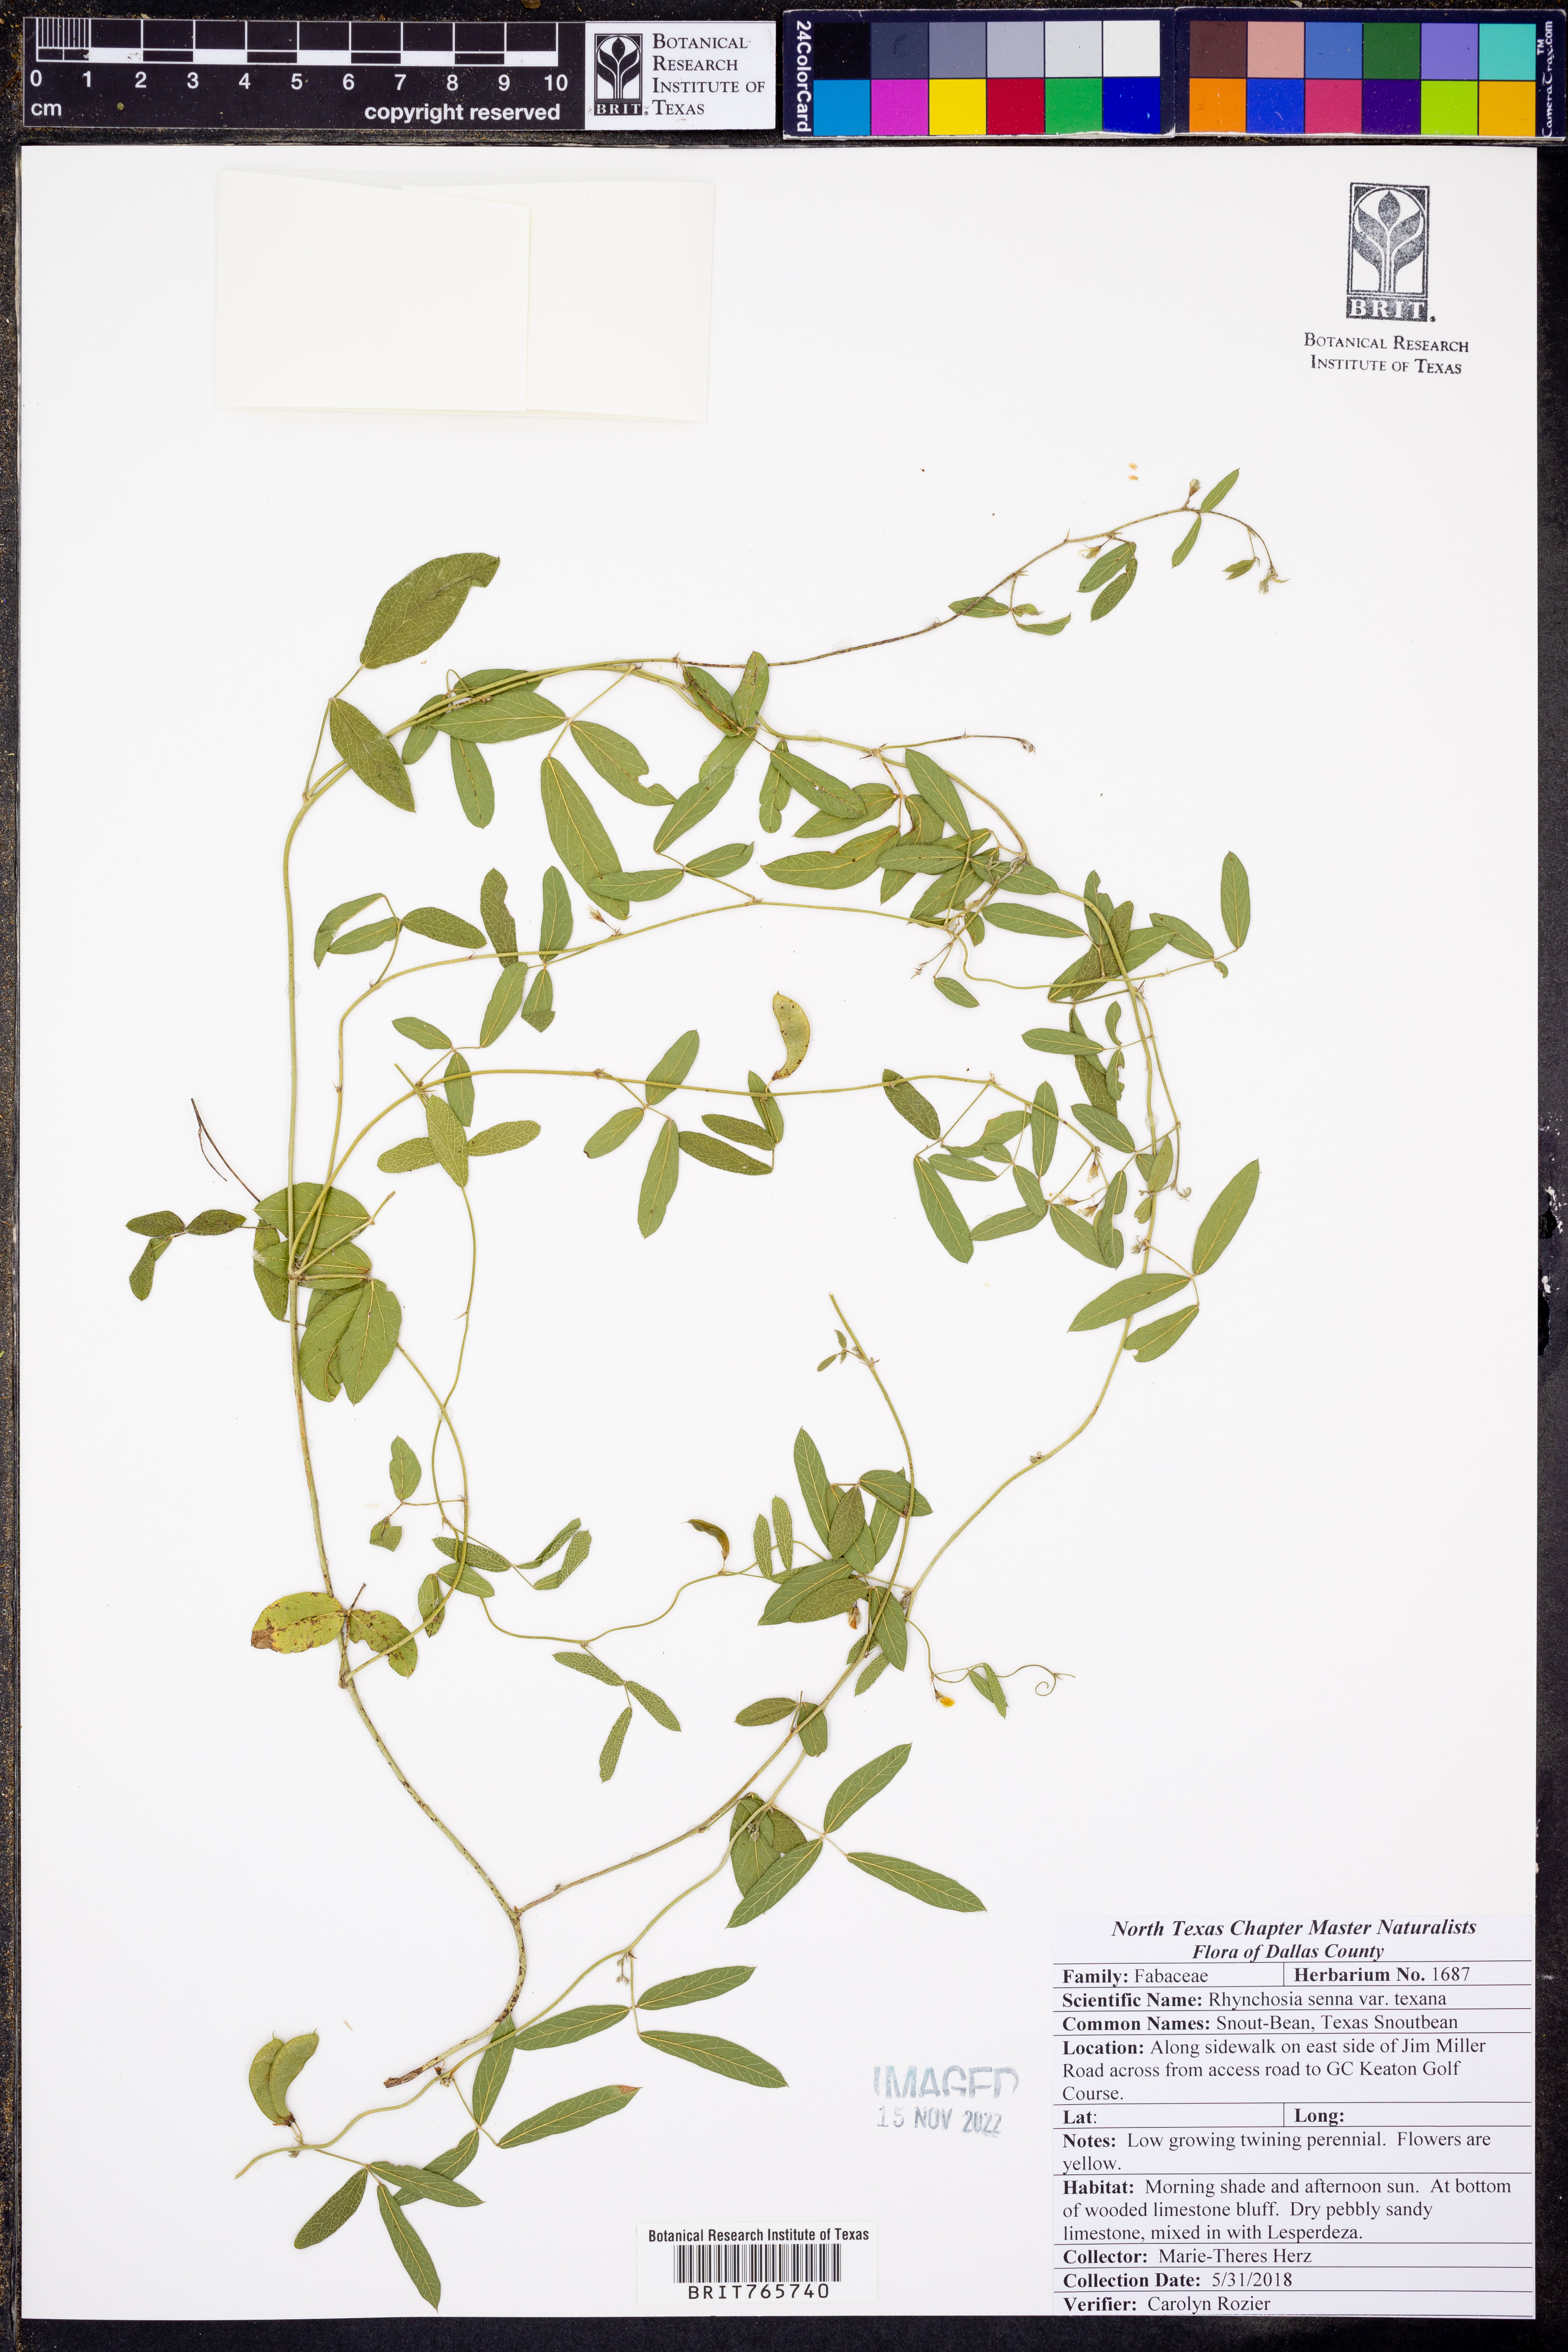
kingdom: Plantae
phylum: Tracheophyta
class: Magnoliopsida
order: Fabales
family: Fabaceae
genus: Rhynchosia
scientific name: Rhynchosia senna
